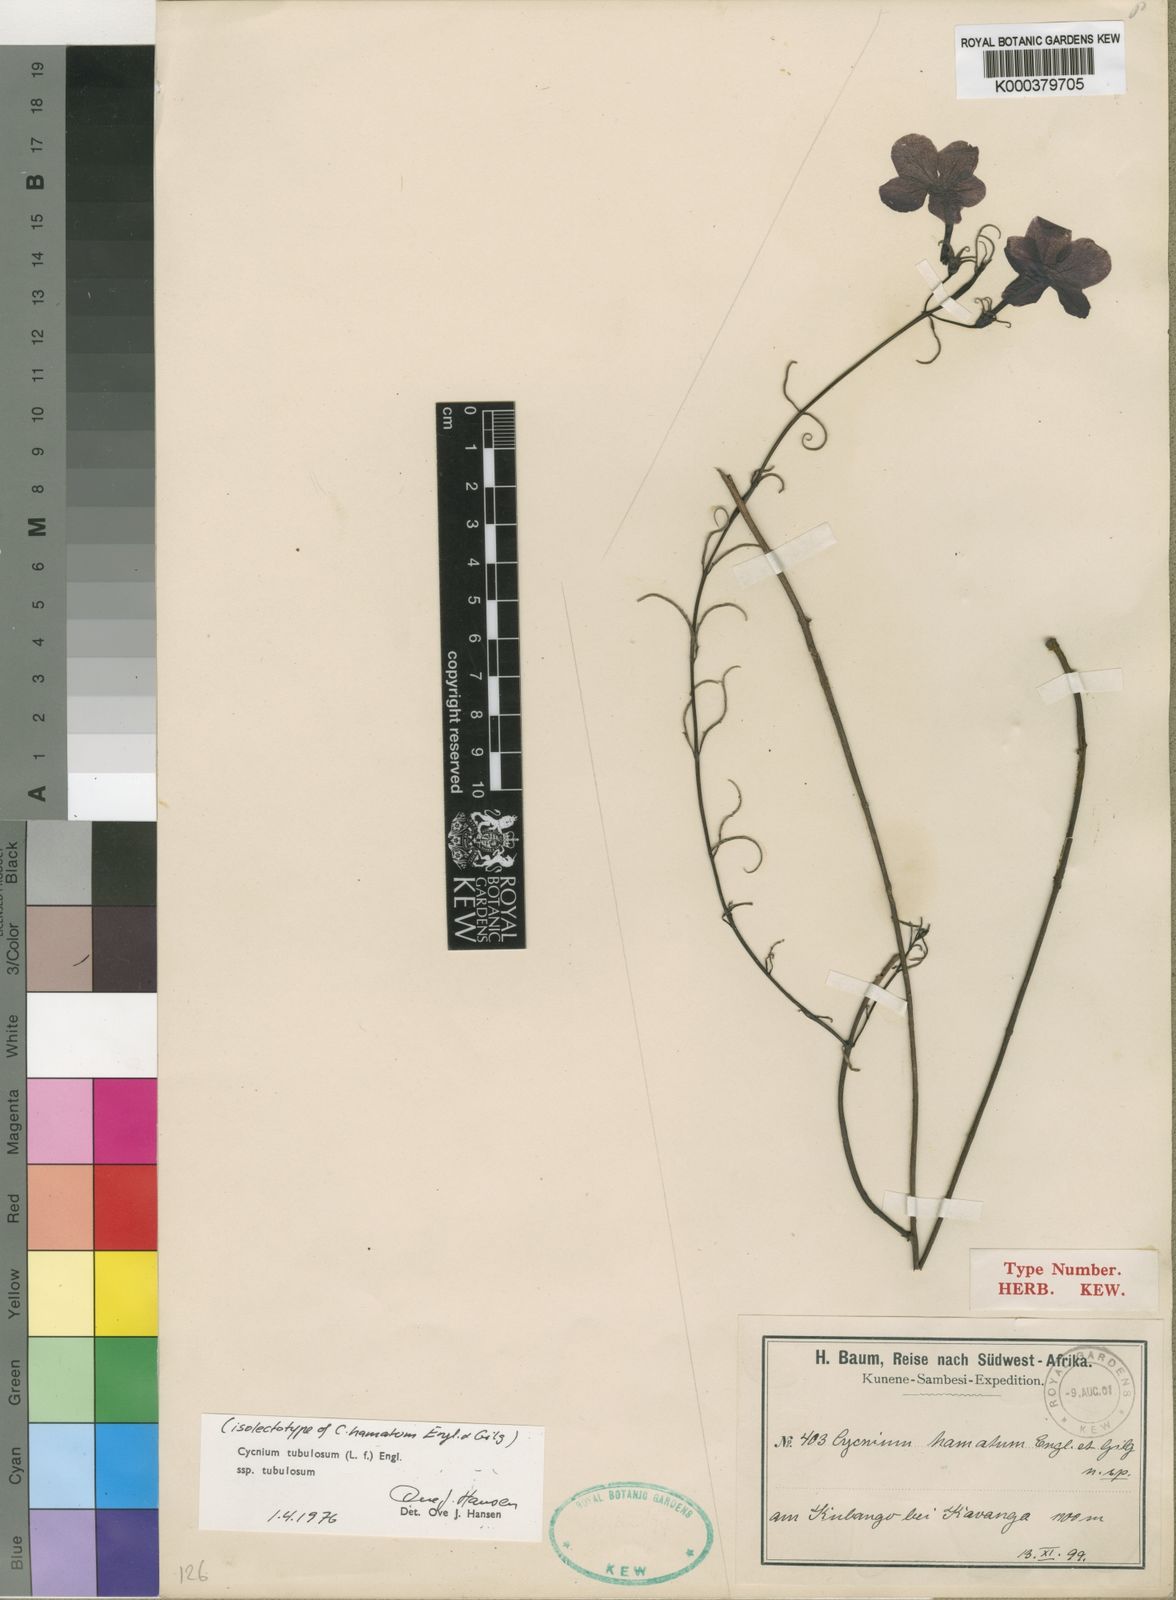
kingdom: Plantae
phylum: Tracheophyta
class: Magnoliopsida
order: Lamiales
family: Orobanchaceae
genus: Cycnium
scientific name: Cycnium tubulosum
